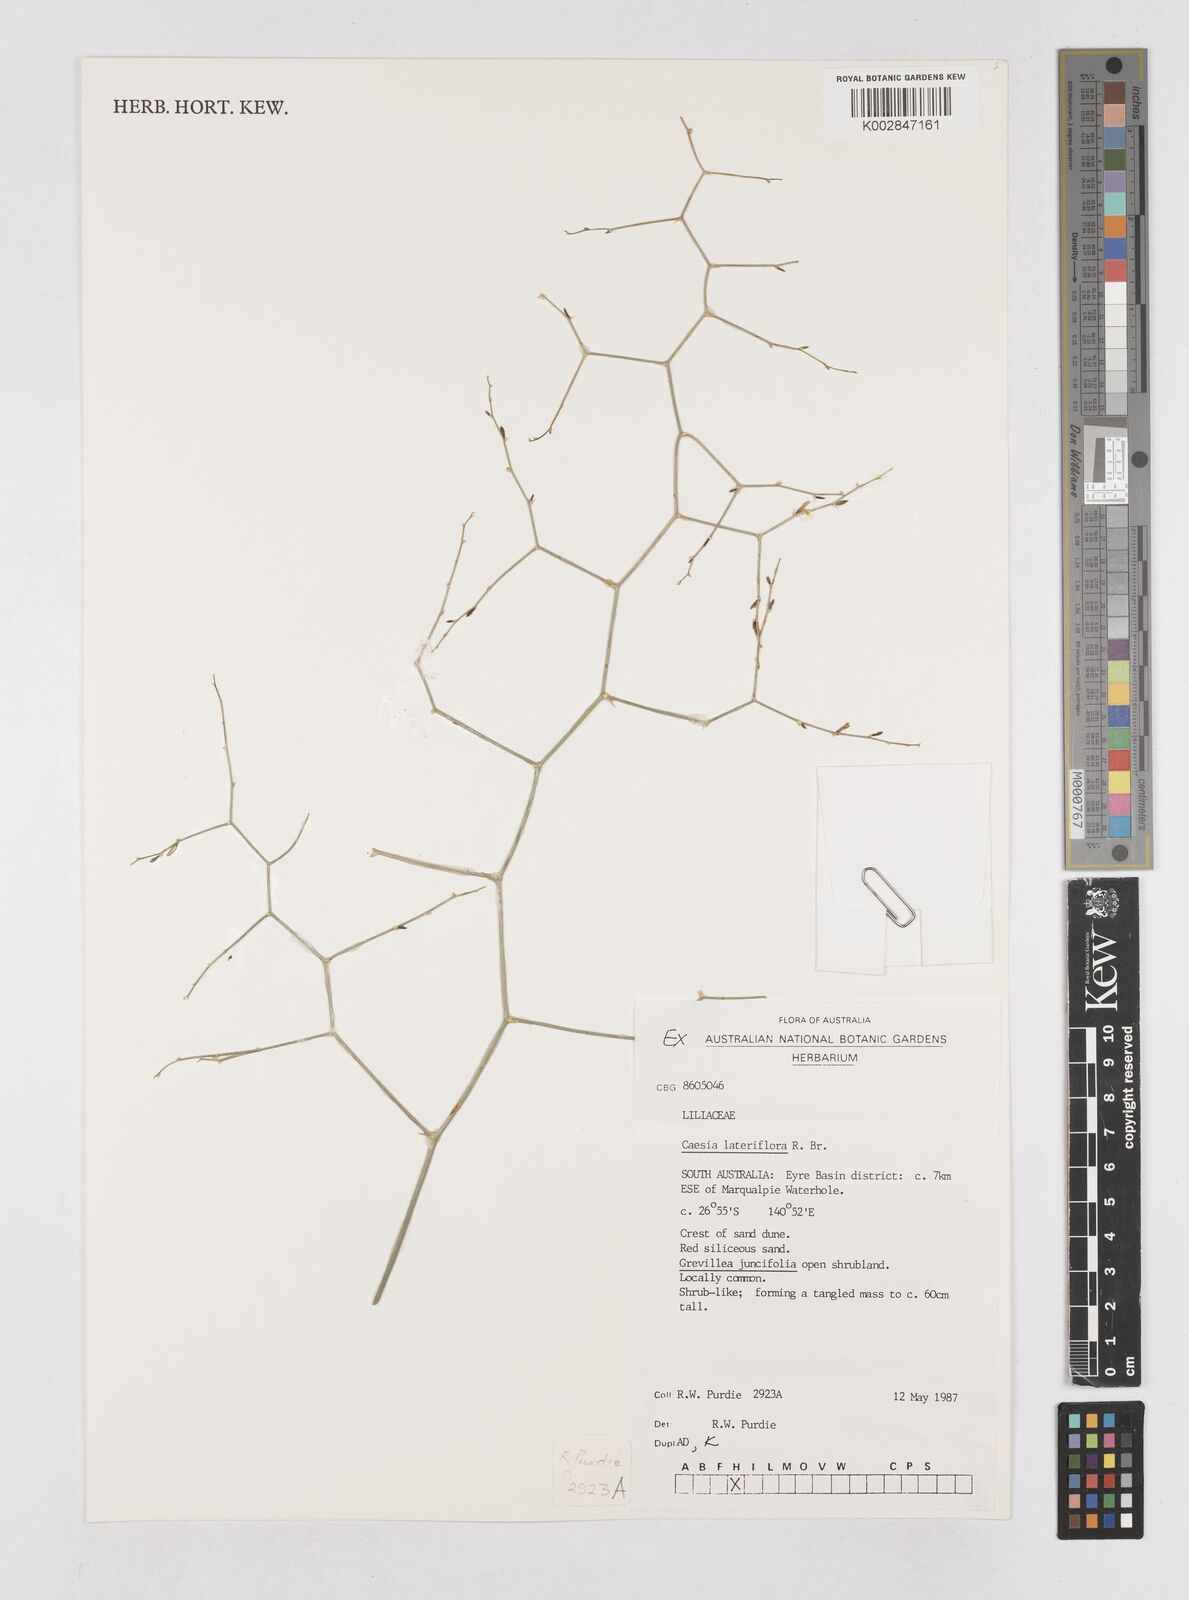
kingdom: Plantae
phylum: Tracheophyta
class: Liliopsida
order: Asparagales
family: Asphodelaceae
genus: Corynotheca
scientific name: Corynotheca lateriflora
